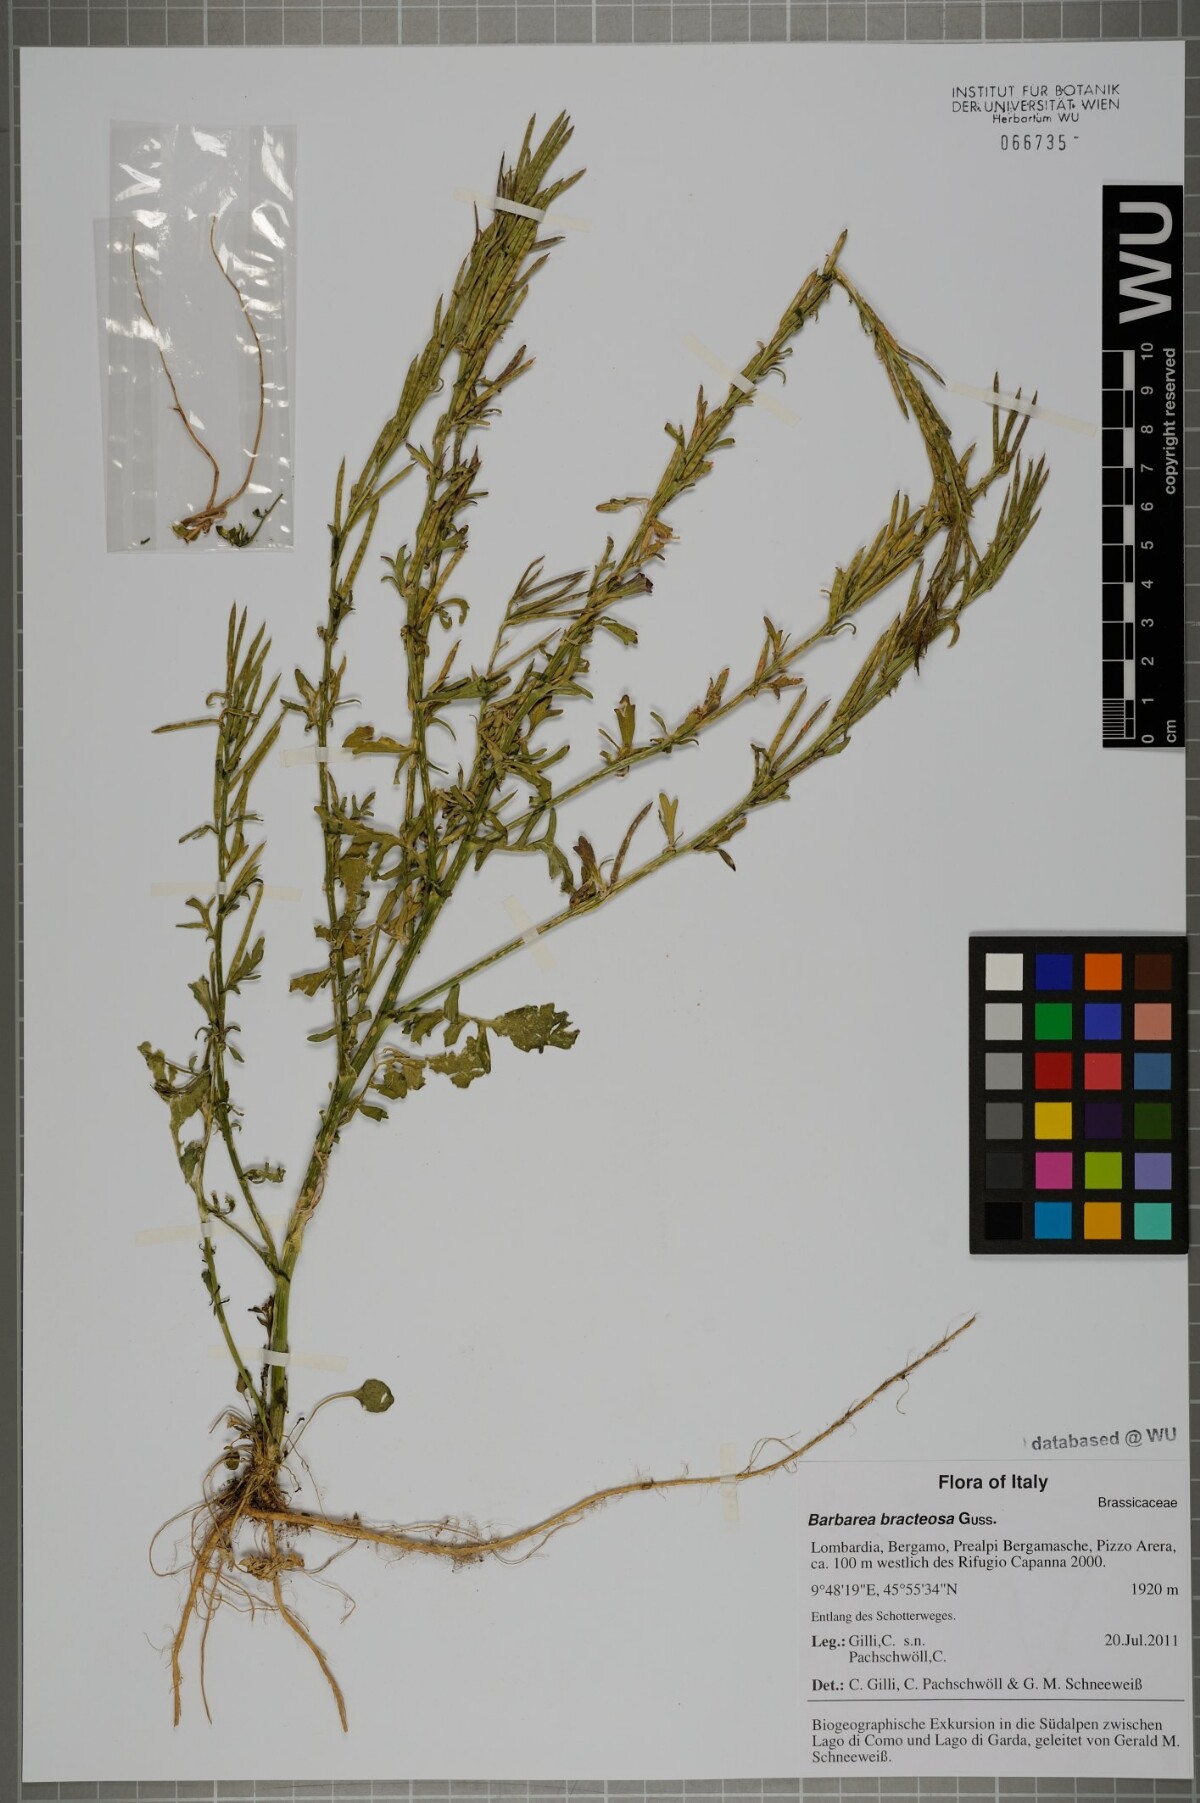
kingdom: Plantae
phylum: Tracheophyta
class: Magnoliopsida
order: Brassicales
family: Brassicaceae
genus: Barbarea
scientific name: Barbarea bracteosa
